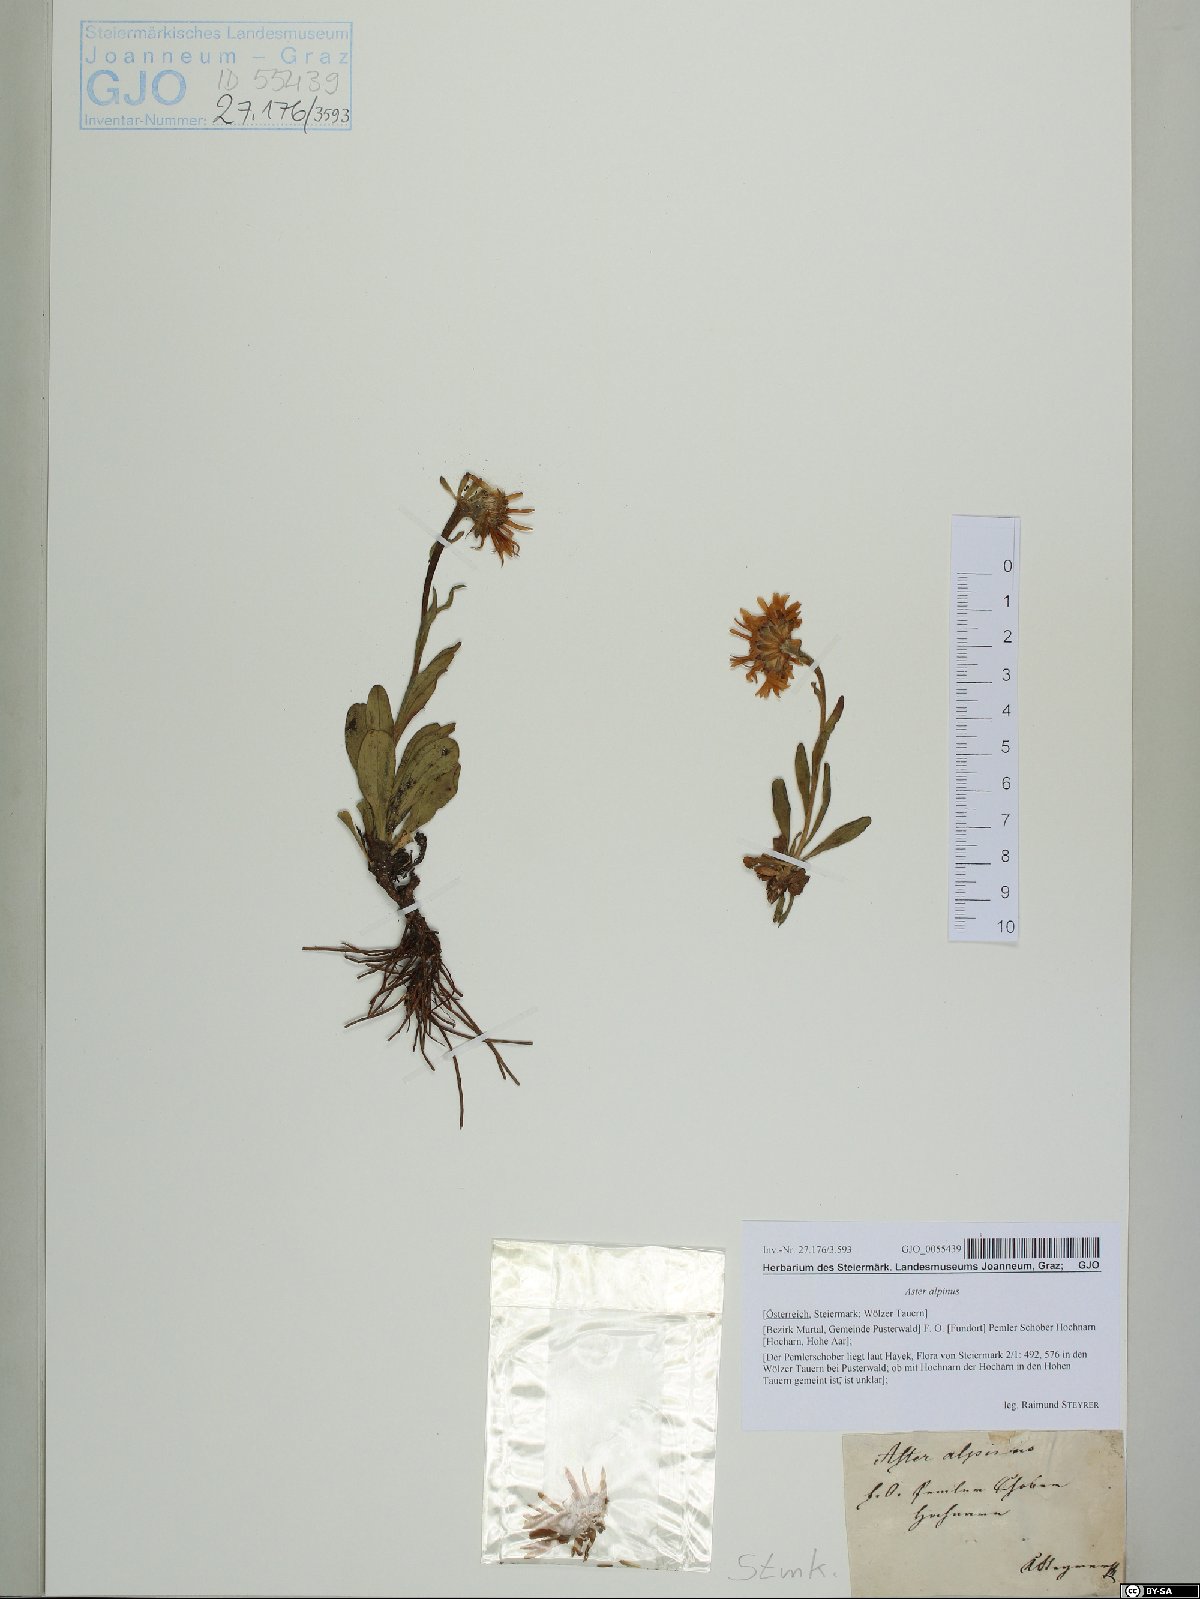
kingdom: Plantae
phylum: Tracheophyta
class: Magnoliopsida
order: Asterales
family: Asteraceae
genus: Aster
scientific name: Aster alpinus
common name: Alpine aster
